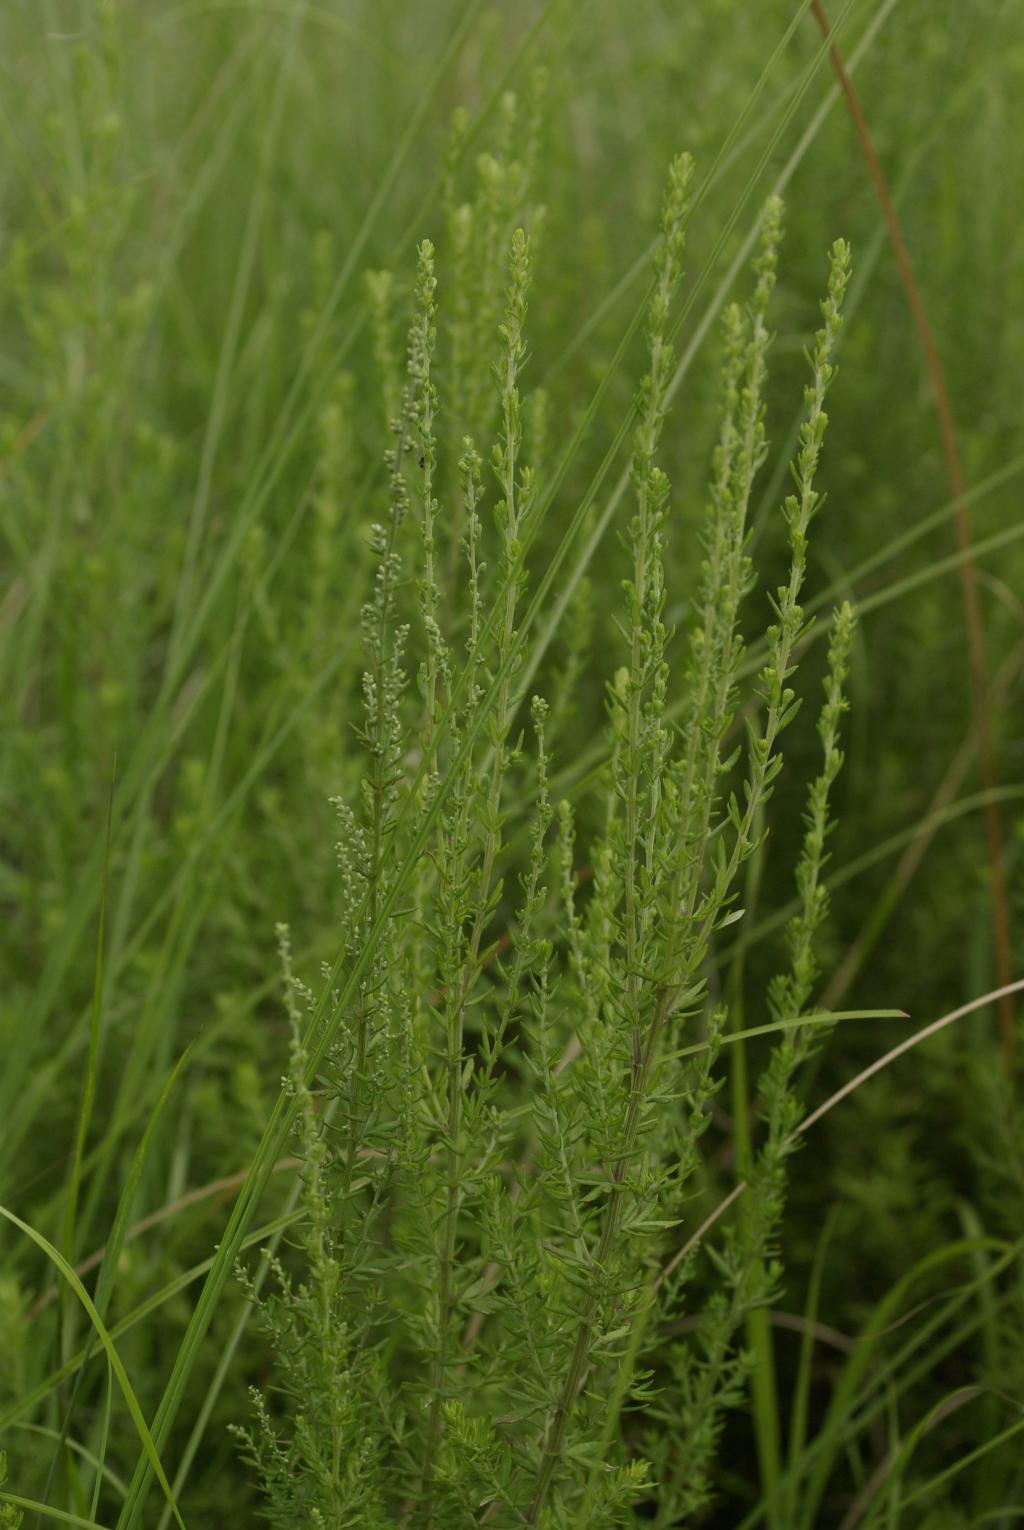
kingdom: Plantae
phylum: Tracheophyta
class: Magnoliopsida
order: Asterales
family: Asteraceae
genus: Artemisia
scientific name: Artemisia lancea
